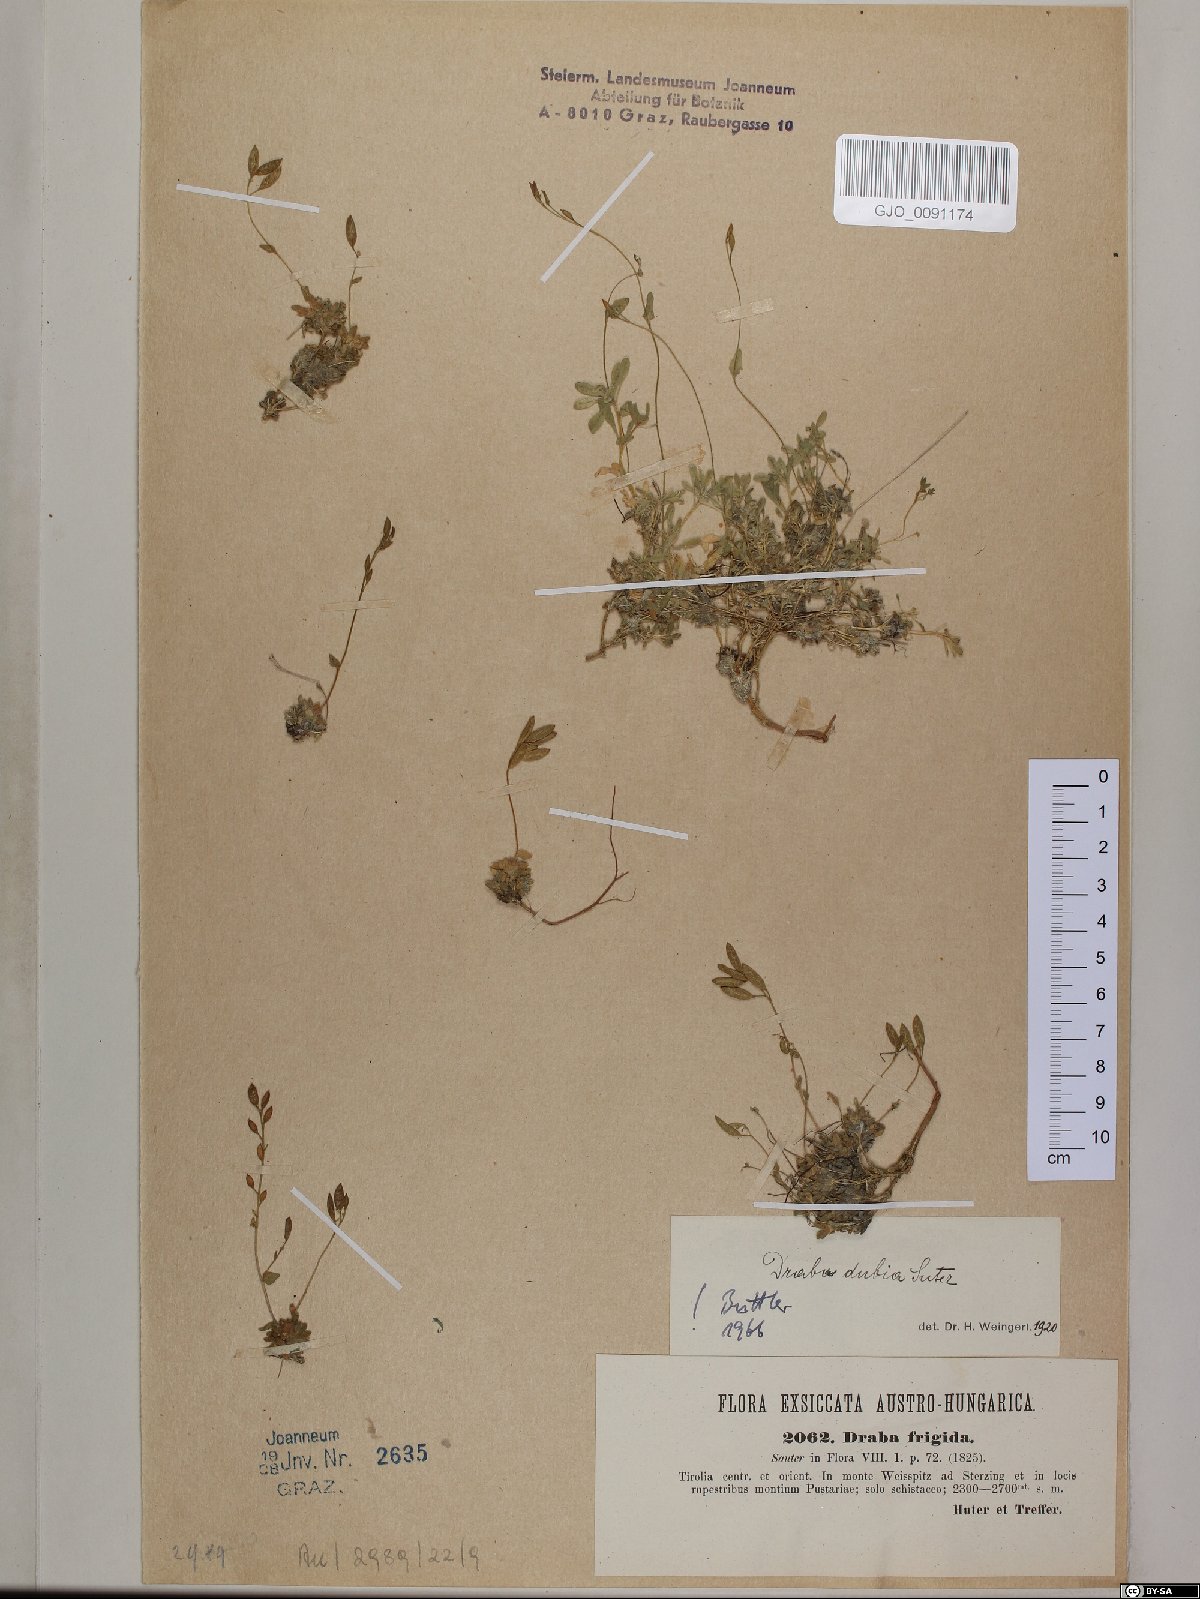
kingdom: Plantae
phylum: Tracheophyta
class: Magnoliopsida
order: Brassicales
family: Brassicaceae
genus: Draba
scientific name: Draba dubia
